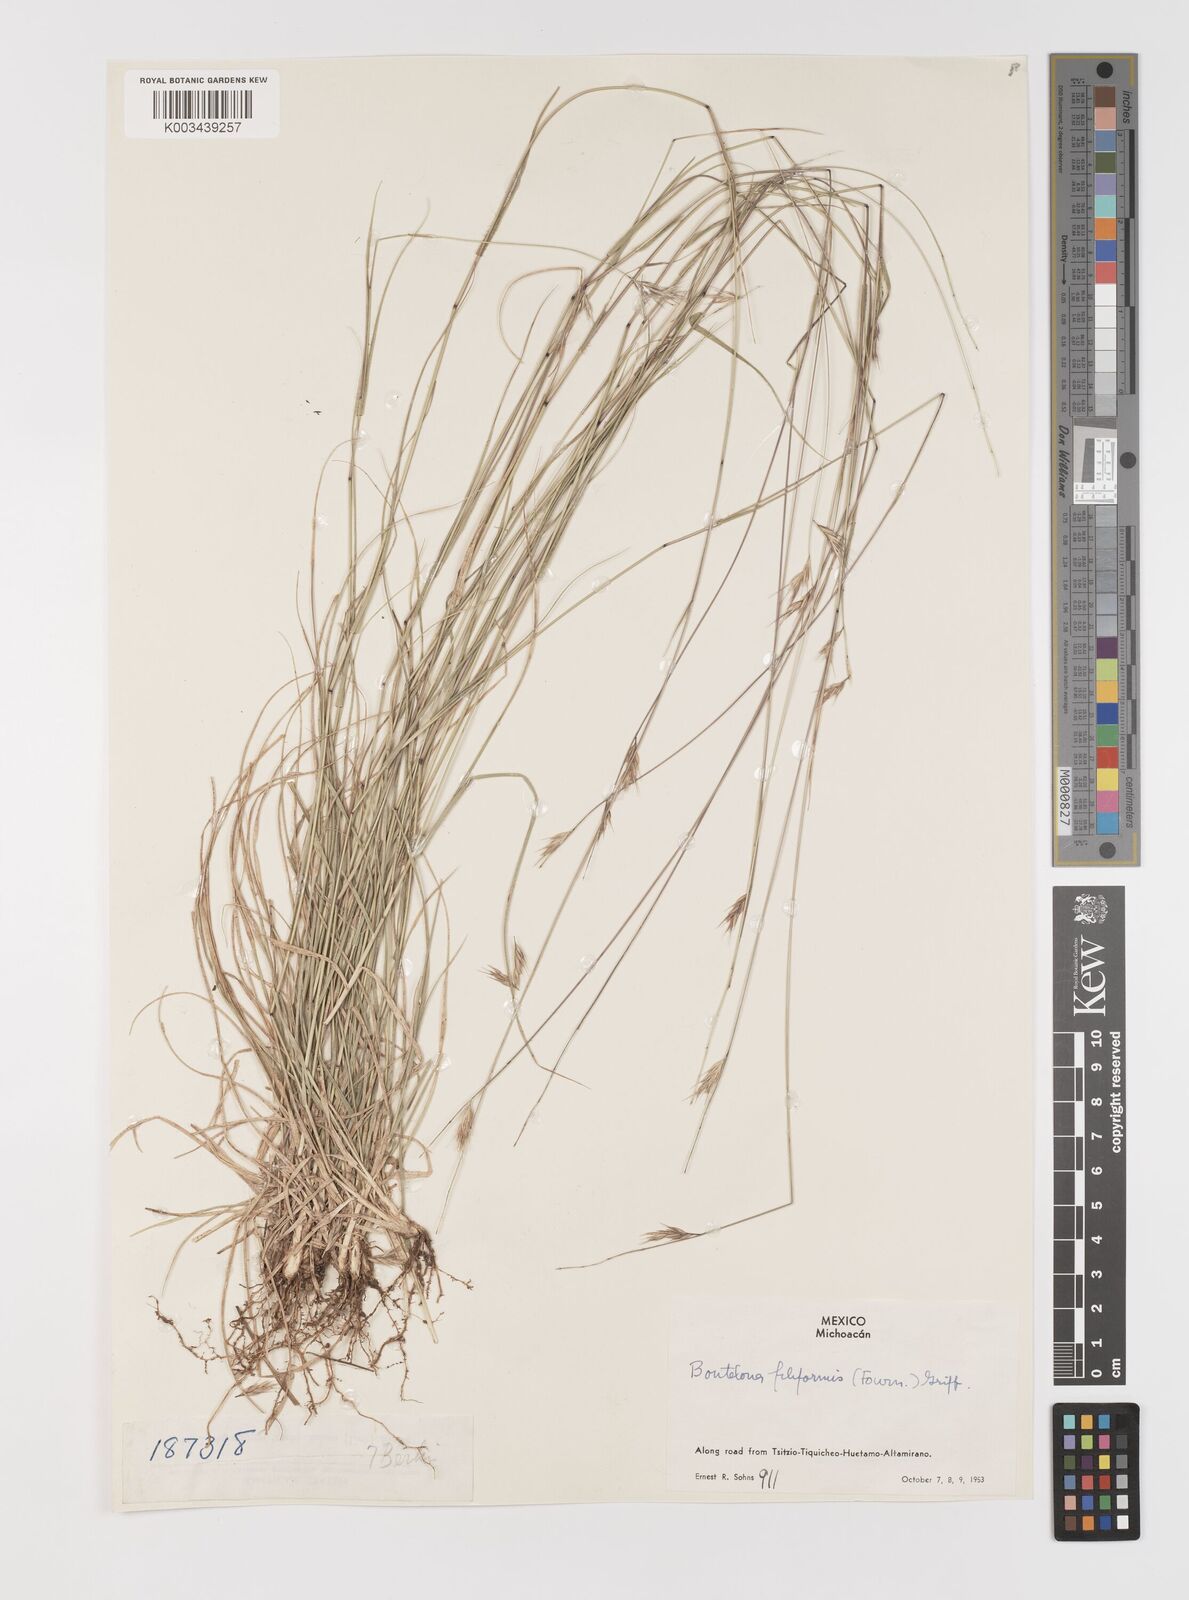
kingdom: Plantae
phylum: Tracheophyta
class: Liliopsida
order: Poales
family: Poaceae
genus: Bouteloua
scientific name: Bouteloua repens
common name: Slender grama
